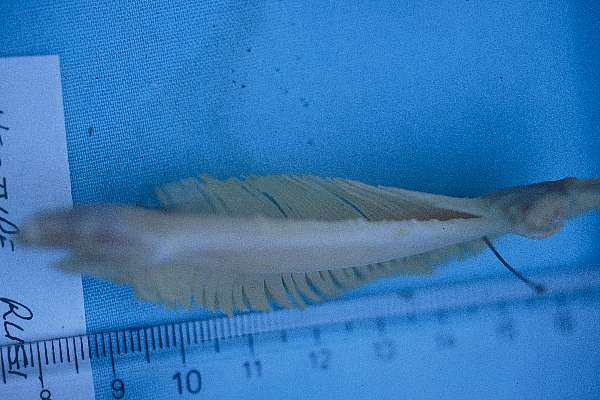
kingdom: Animalia
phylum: Chordata
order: Siluriformes
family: Clariidae
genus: Clarias
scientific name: Clarias gariepinus
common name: African catfish
